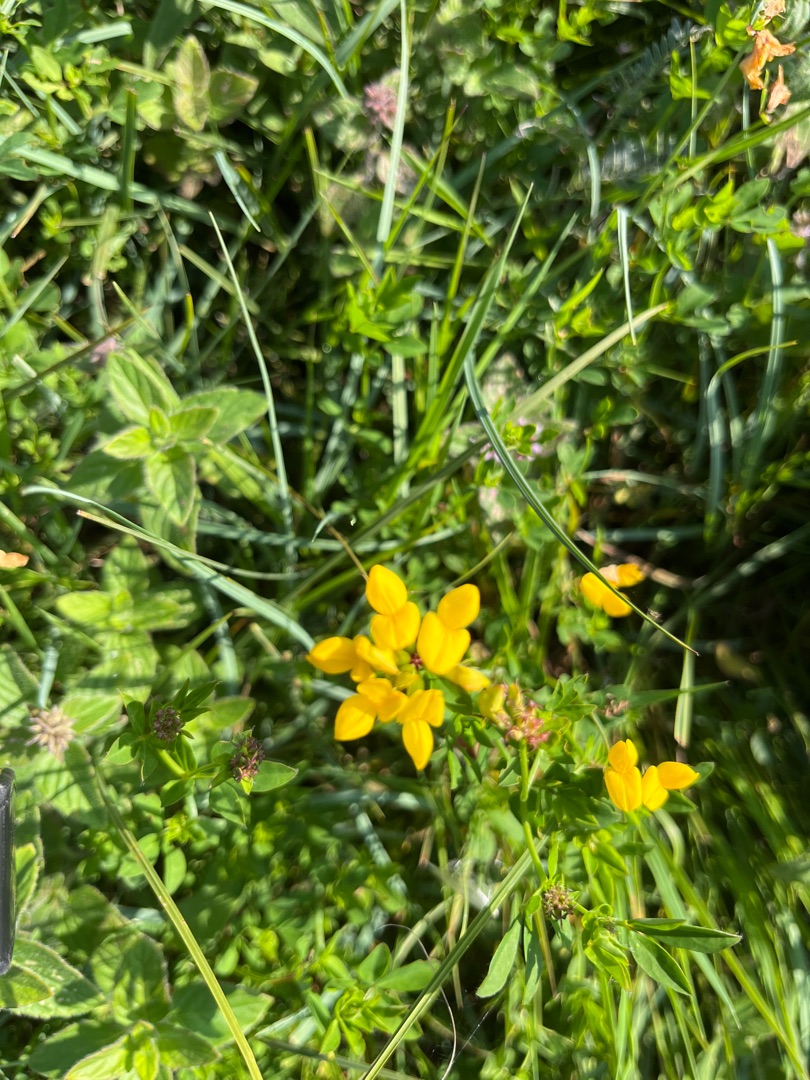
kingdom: Plantae
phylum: Tracheophyta
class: Magnoliopsida
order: Fabales
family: Fabaceae
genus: Lotus
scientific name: Lotus pedunculatus
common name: Sump-kællingetand
